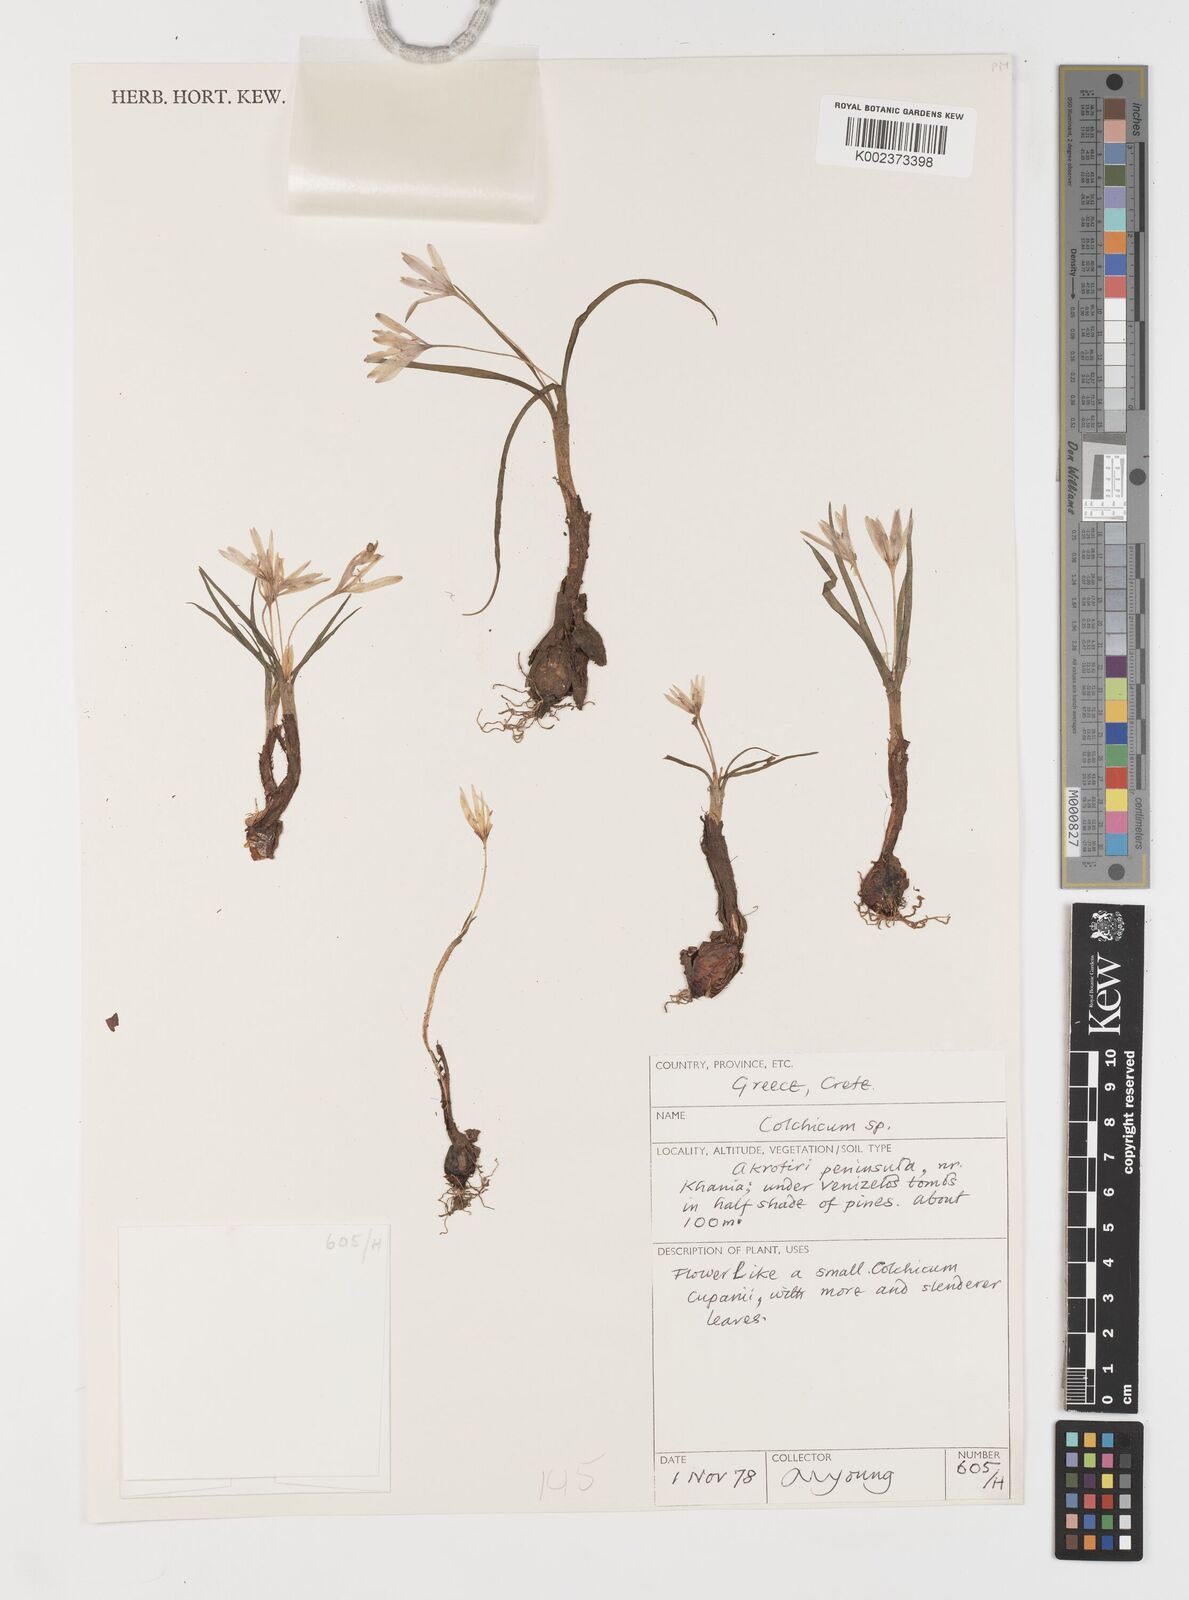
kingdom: Plantae
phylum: Tracheophyta
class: Liliopsida
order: Liliales
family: Colchicaceae
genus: Colchicum
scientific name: Colchicum
